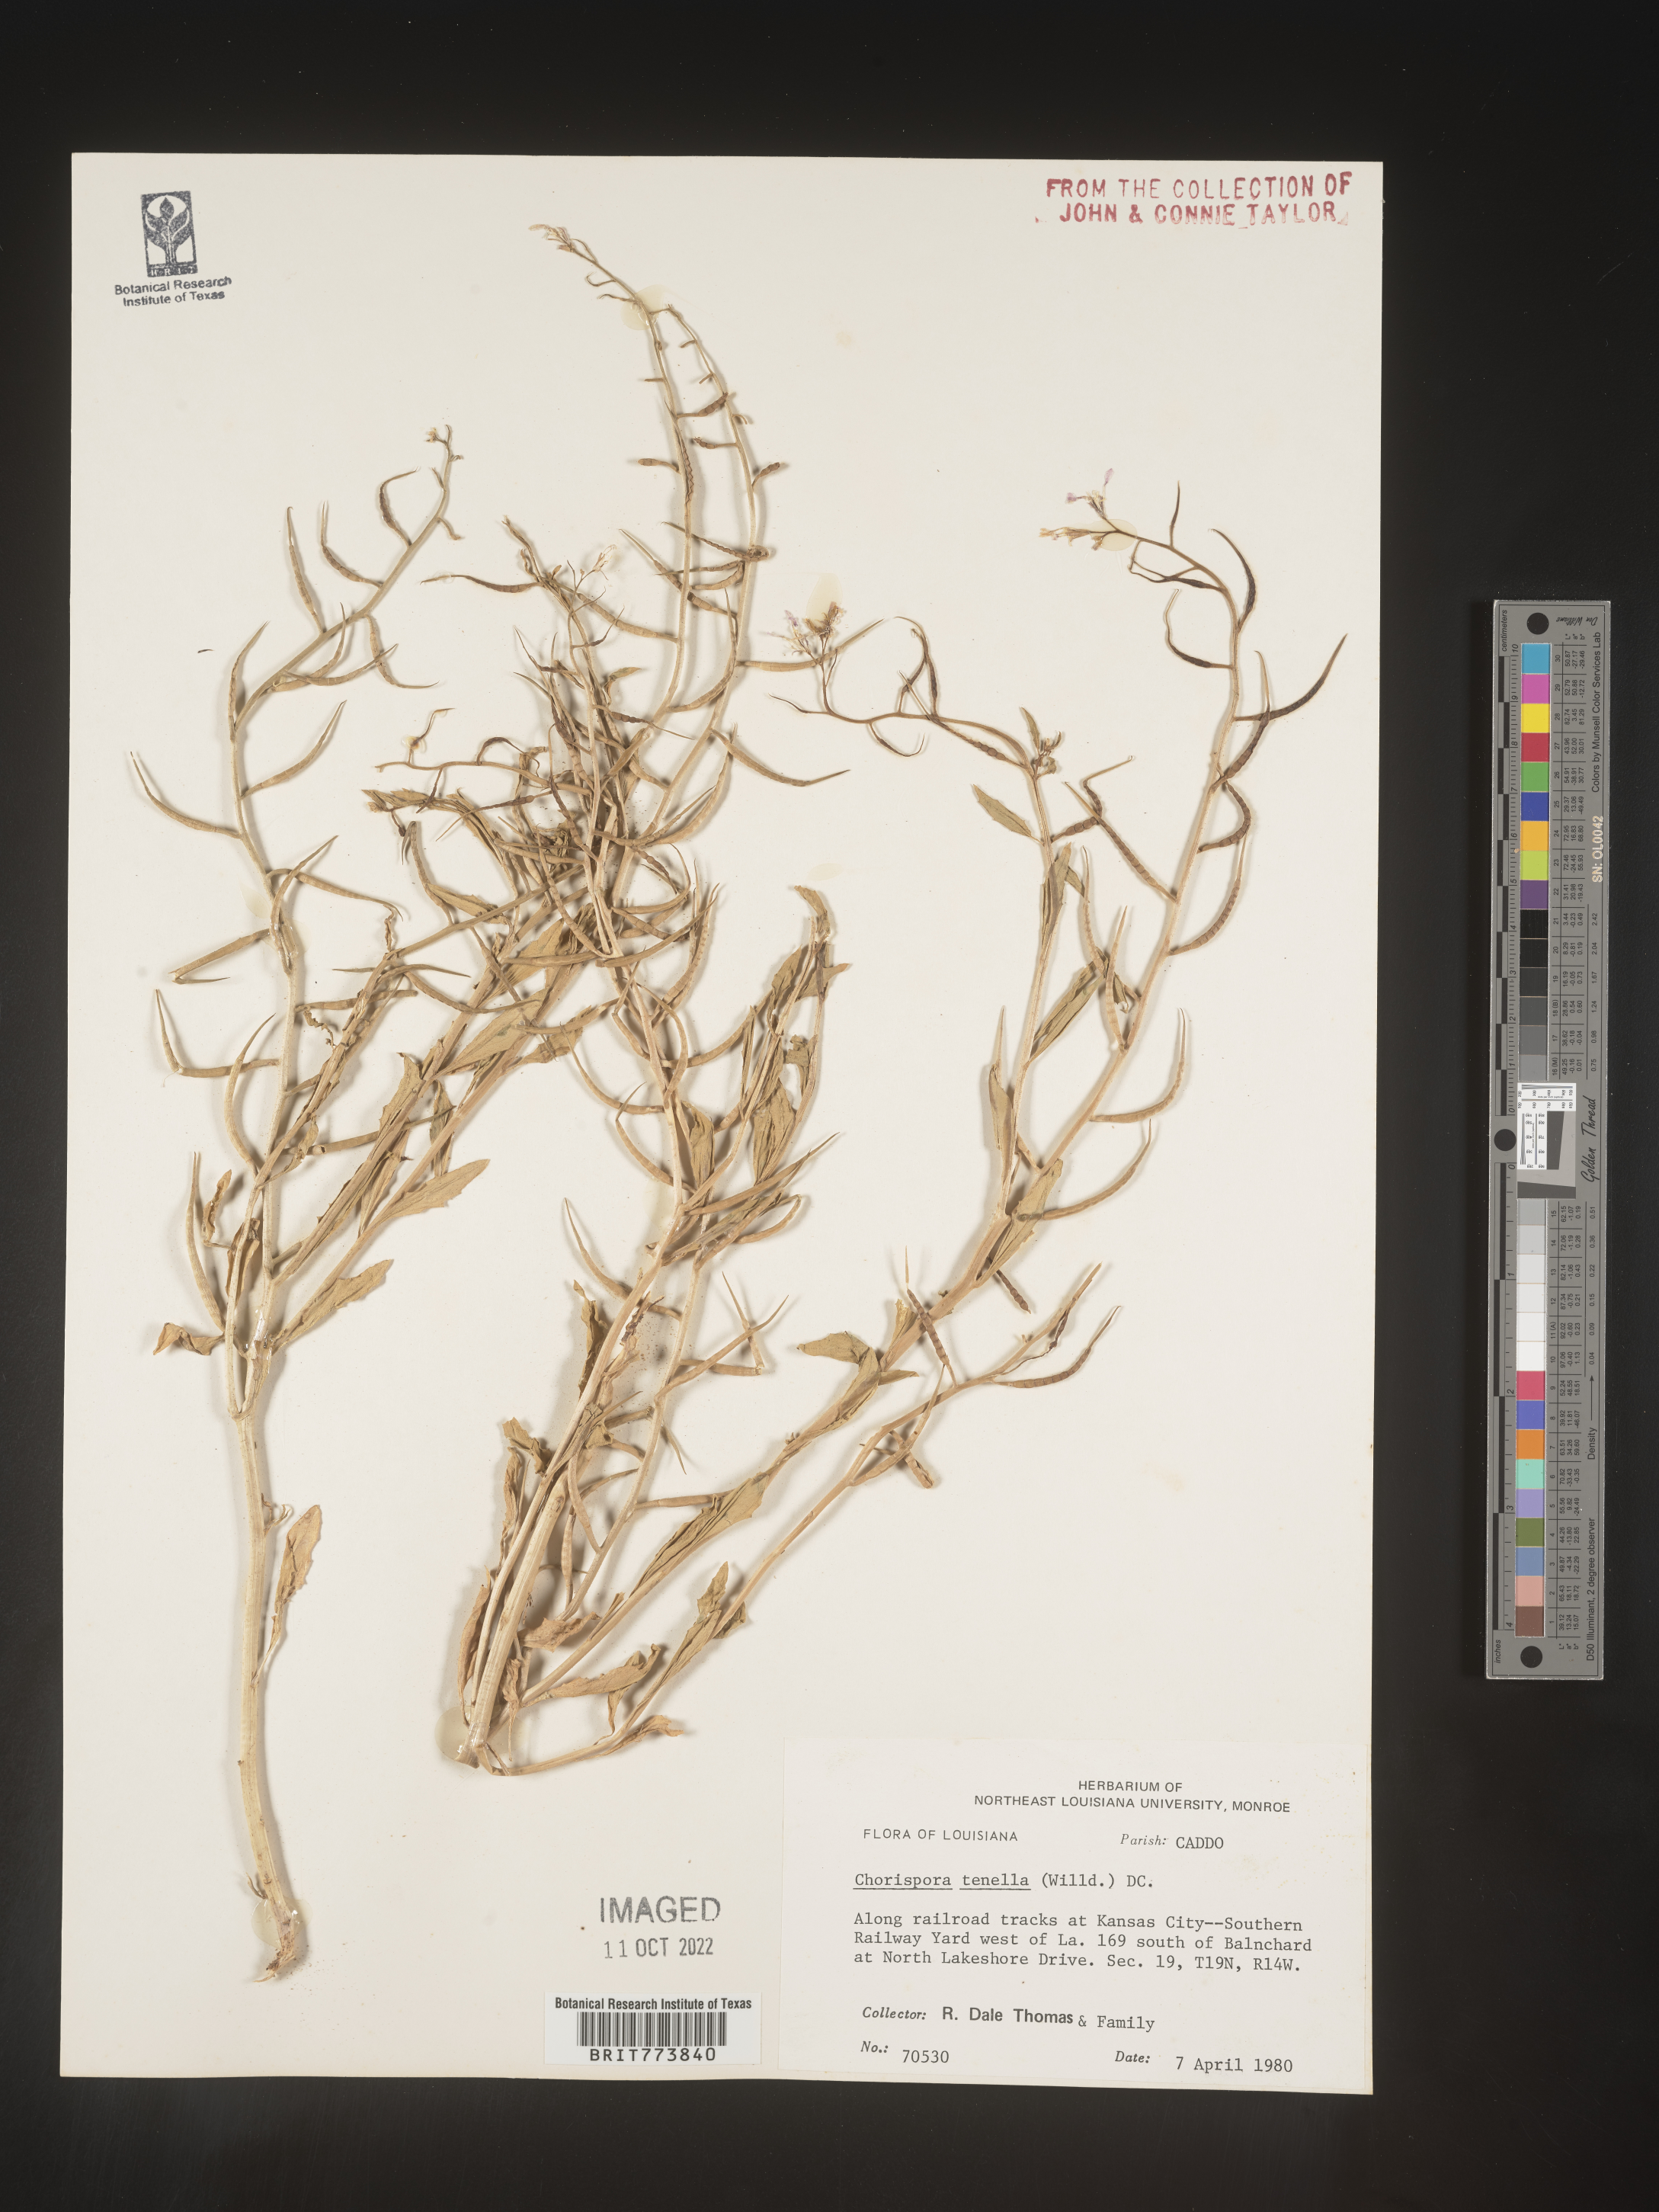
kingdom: Plantae
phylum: Tracheophyta
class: Magnoliopsida
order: Brassicales
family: Brassicaceae
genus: Chorispora
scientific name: Chorispora tenella
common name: Crossflower
